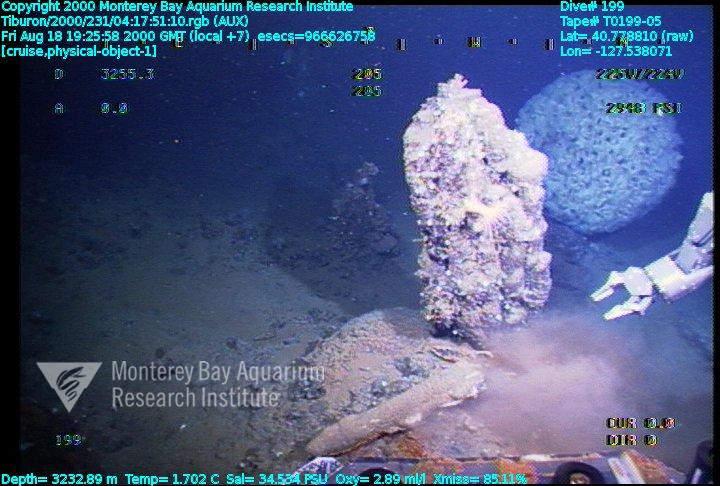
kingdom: Animalia
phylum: Porifera
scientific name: Porifera
